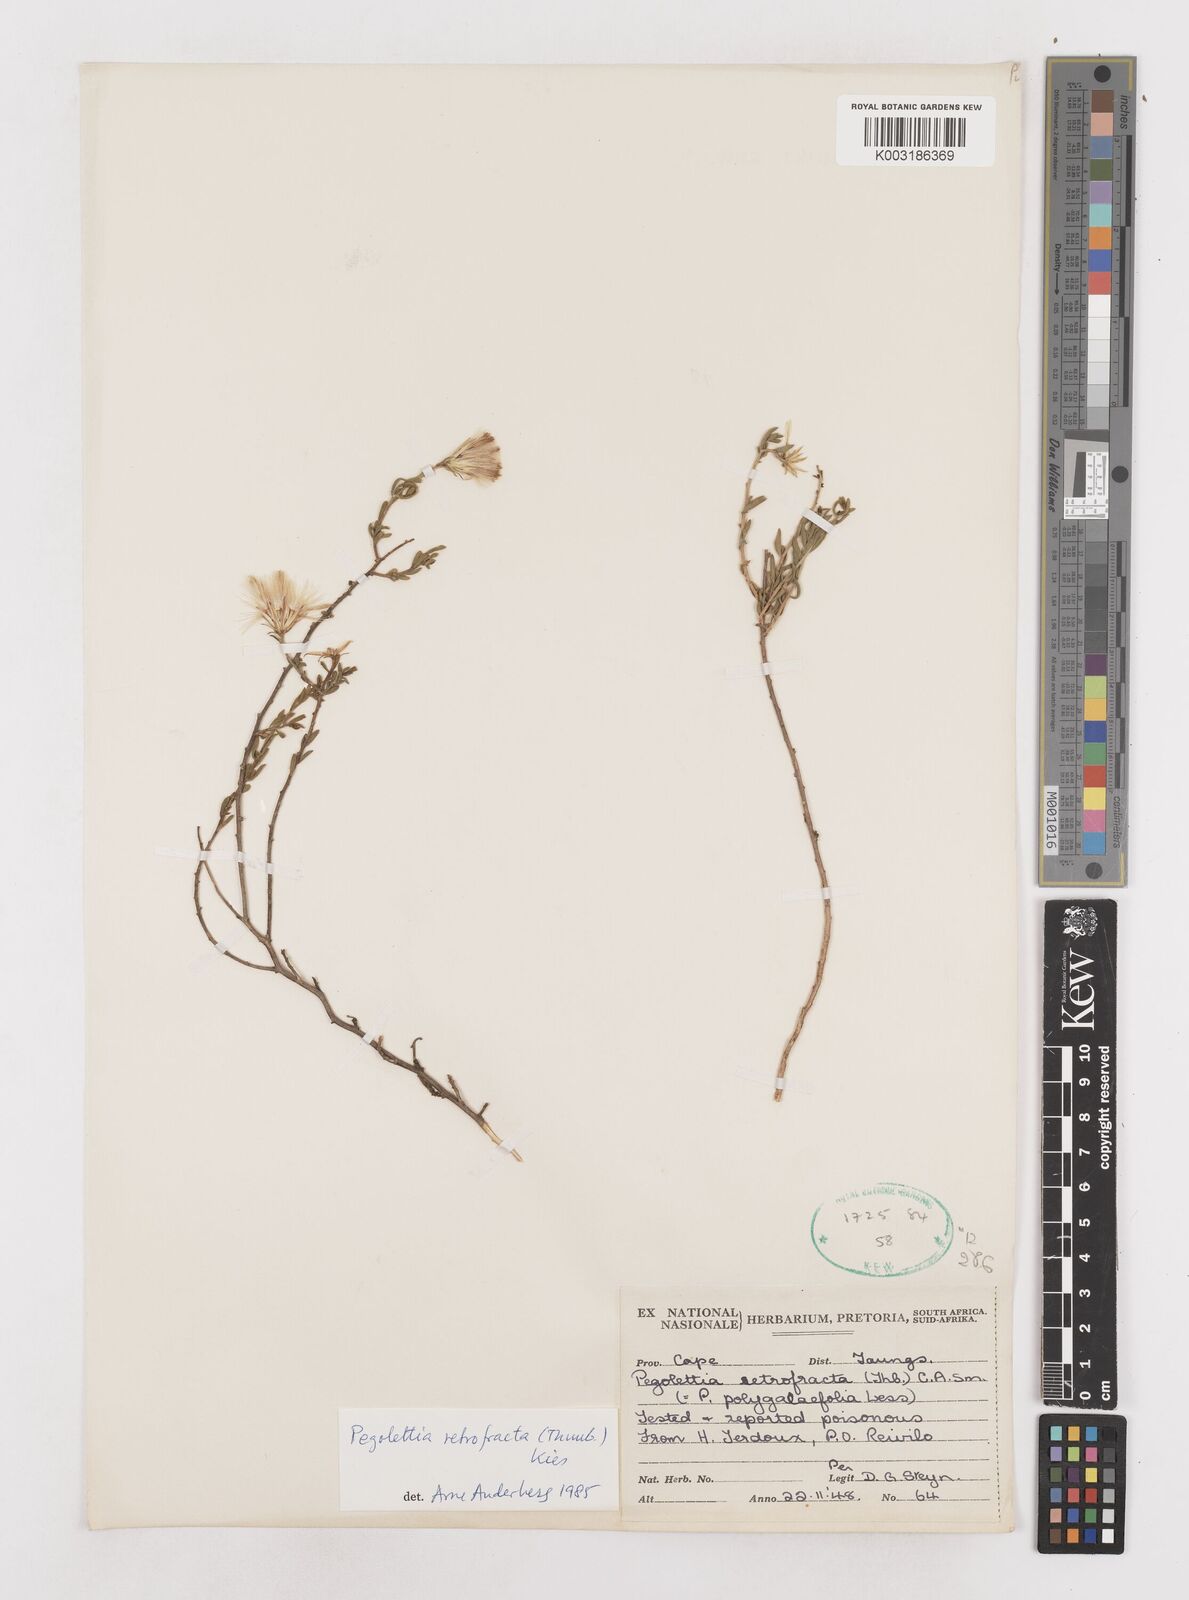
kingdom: Plantae
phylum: Tracheophyta
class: Magnoliopsida
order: Asterales
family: Asteraceae
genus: Pegolettia
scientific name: Pegolettia retrofracta
